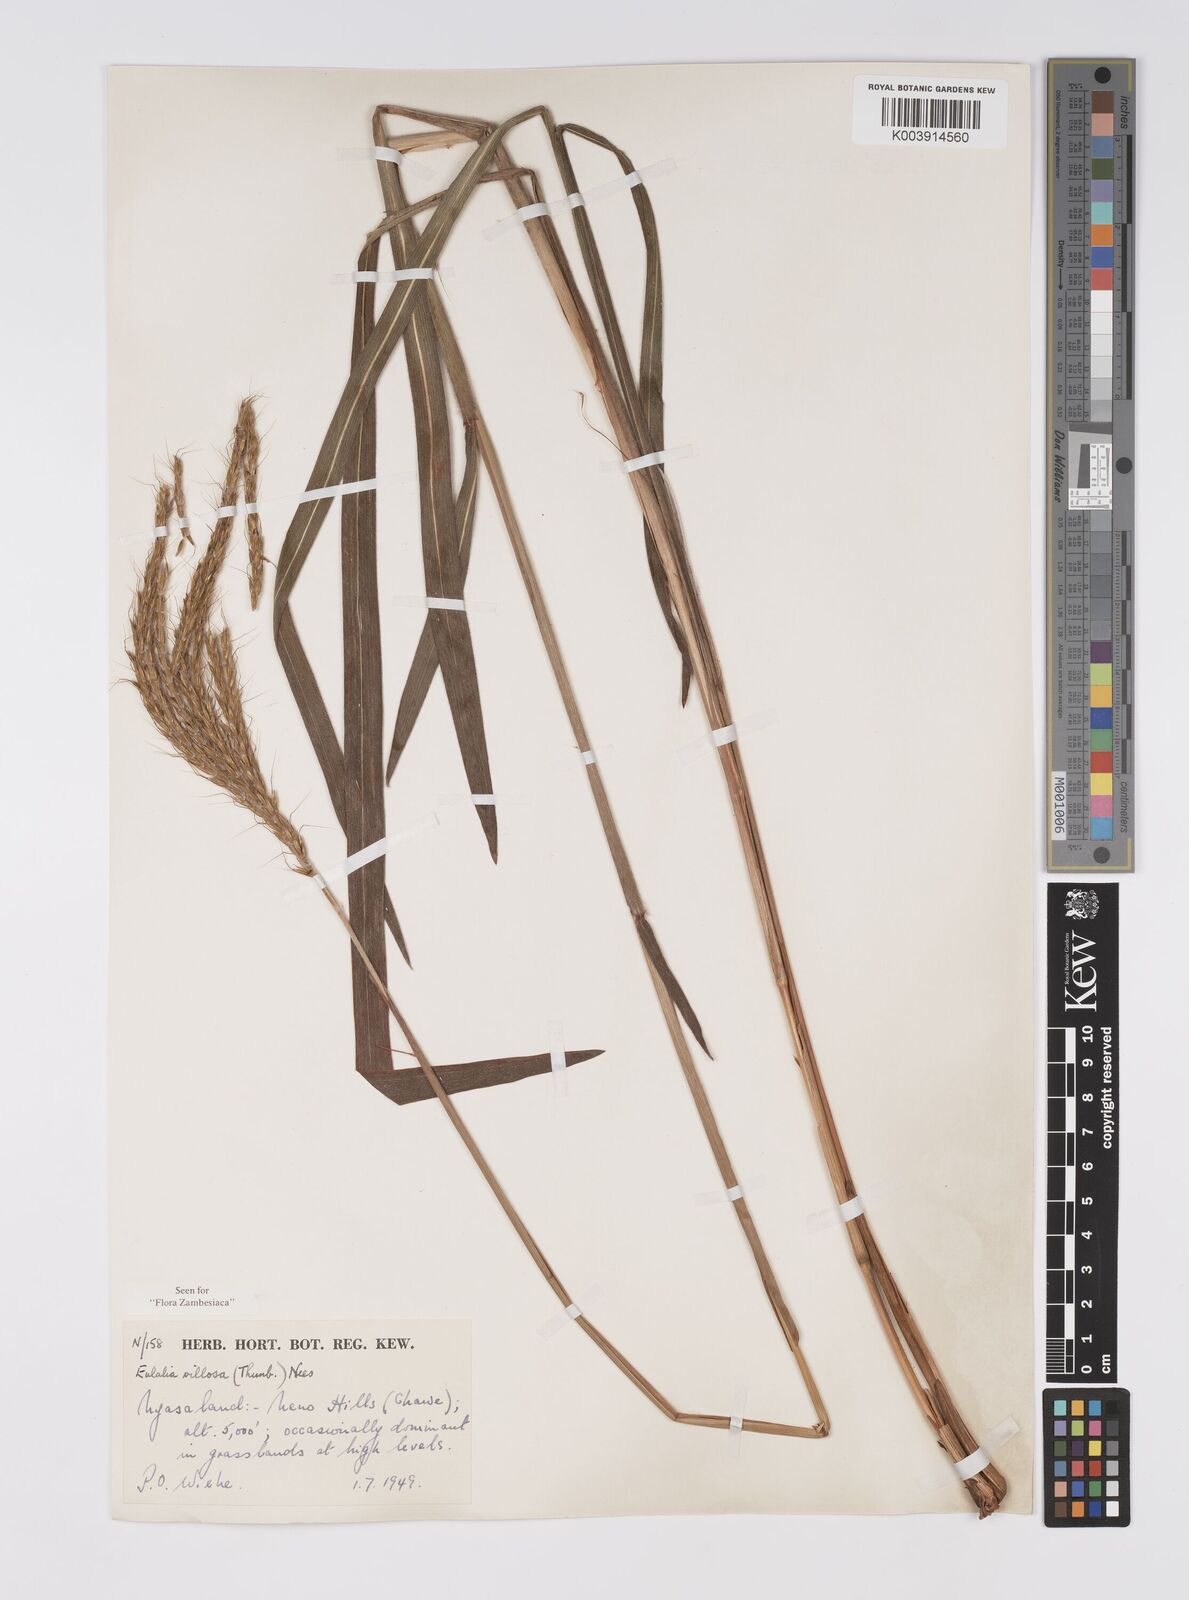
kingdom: Plantae
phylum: Tracheophyta
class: Liliopsida
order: Poales
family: Poaceae
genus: Eulalia
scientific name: Eulalia villosa
